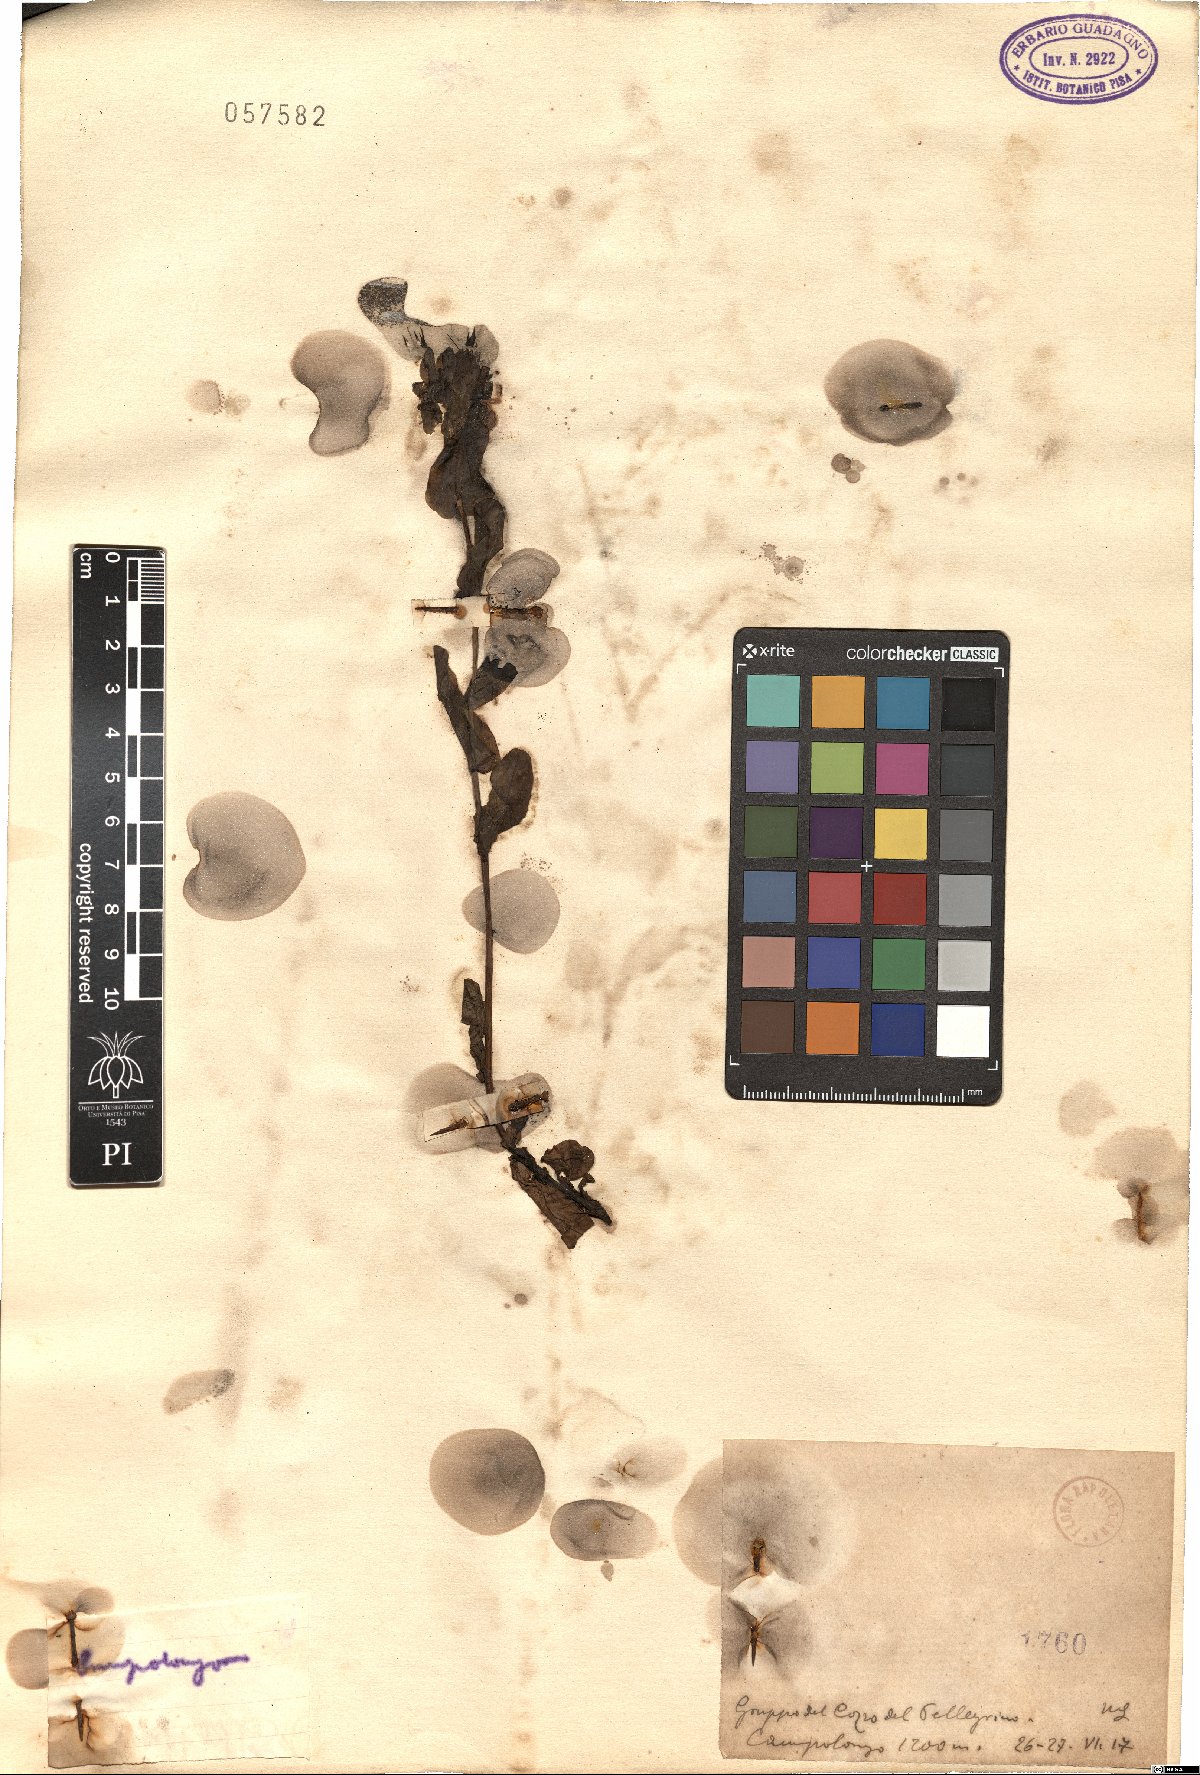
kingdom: Plantae
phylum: Tracheophyta
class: Magnoliopsida
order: Boraginales
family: Boraginaceae
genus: Cerinthe
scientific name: Cerinthe
